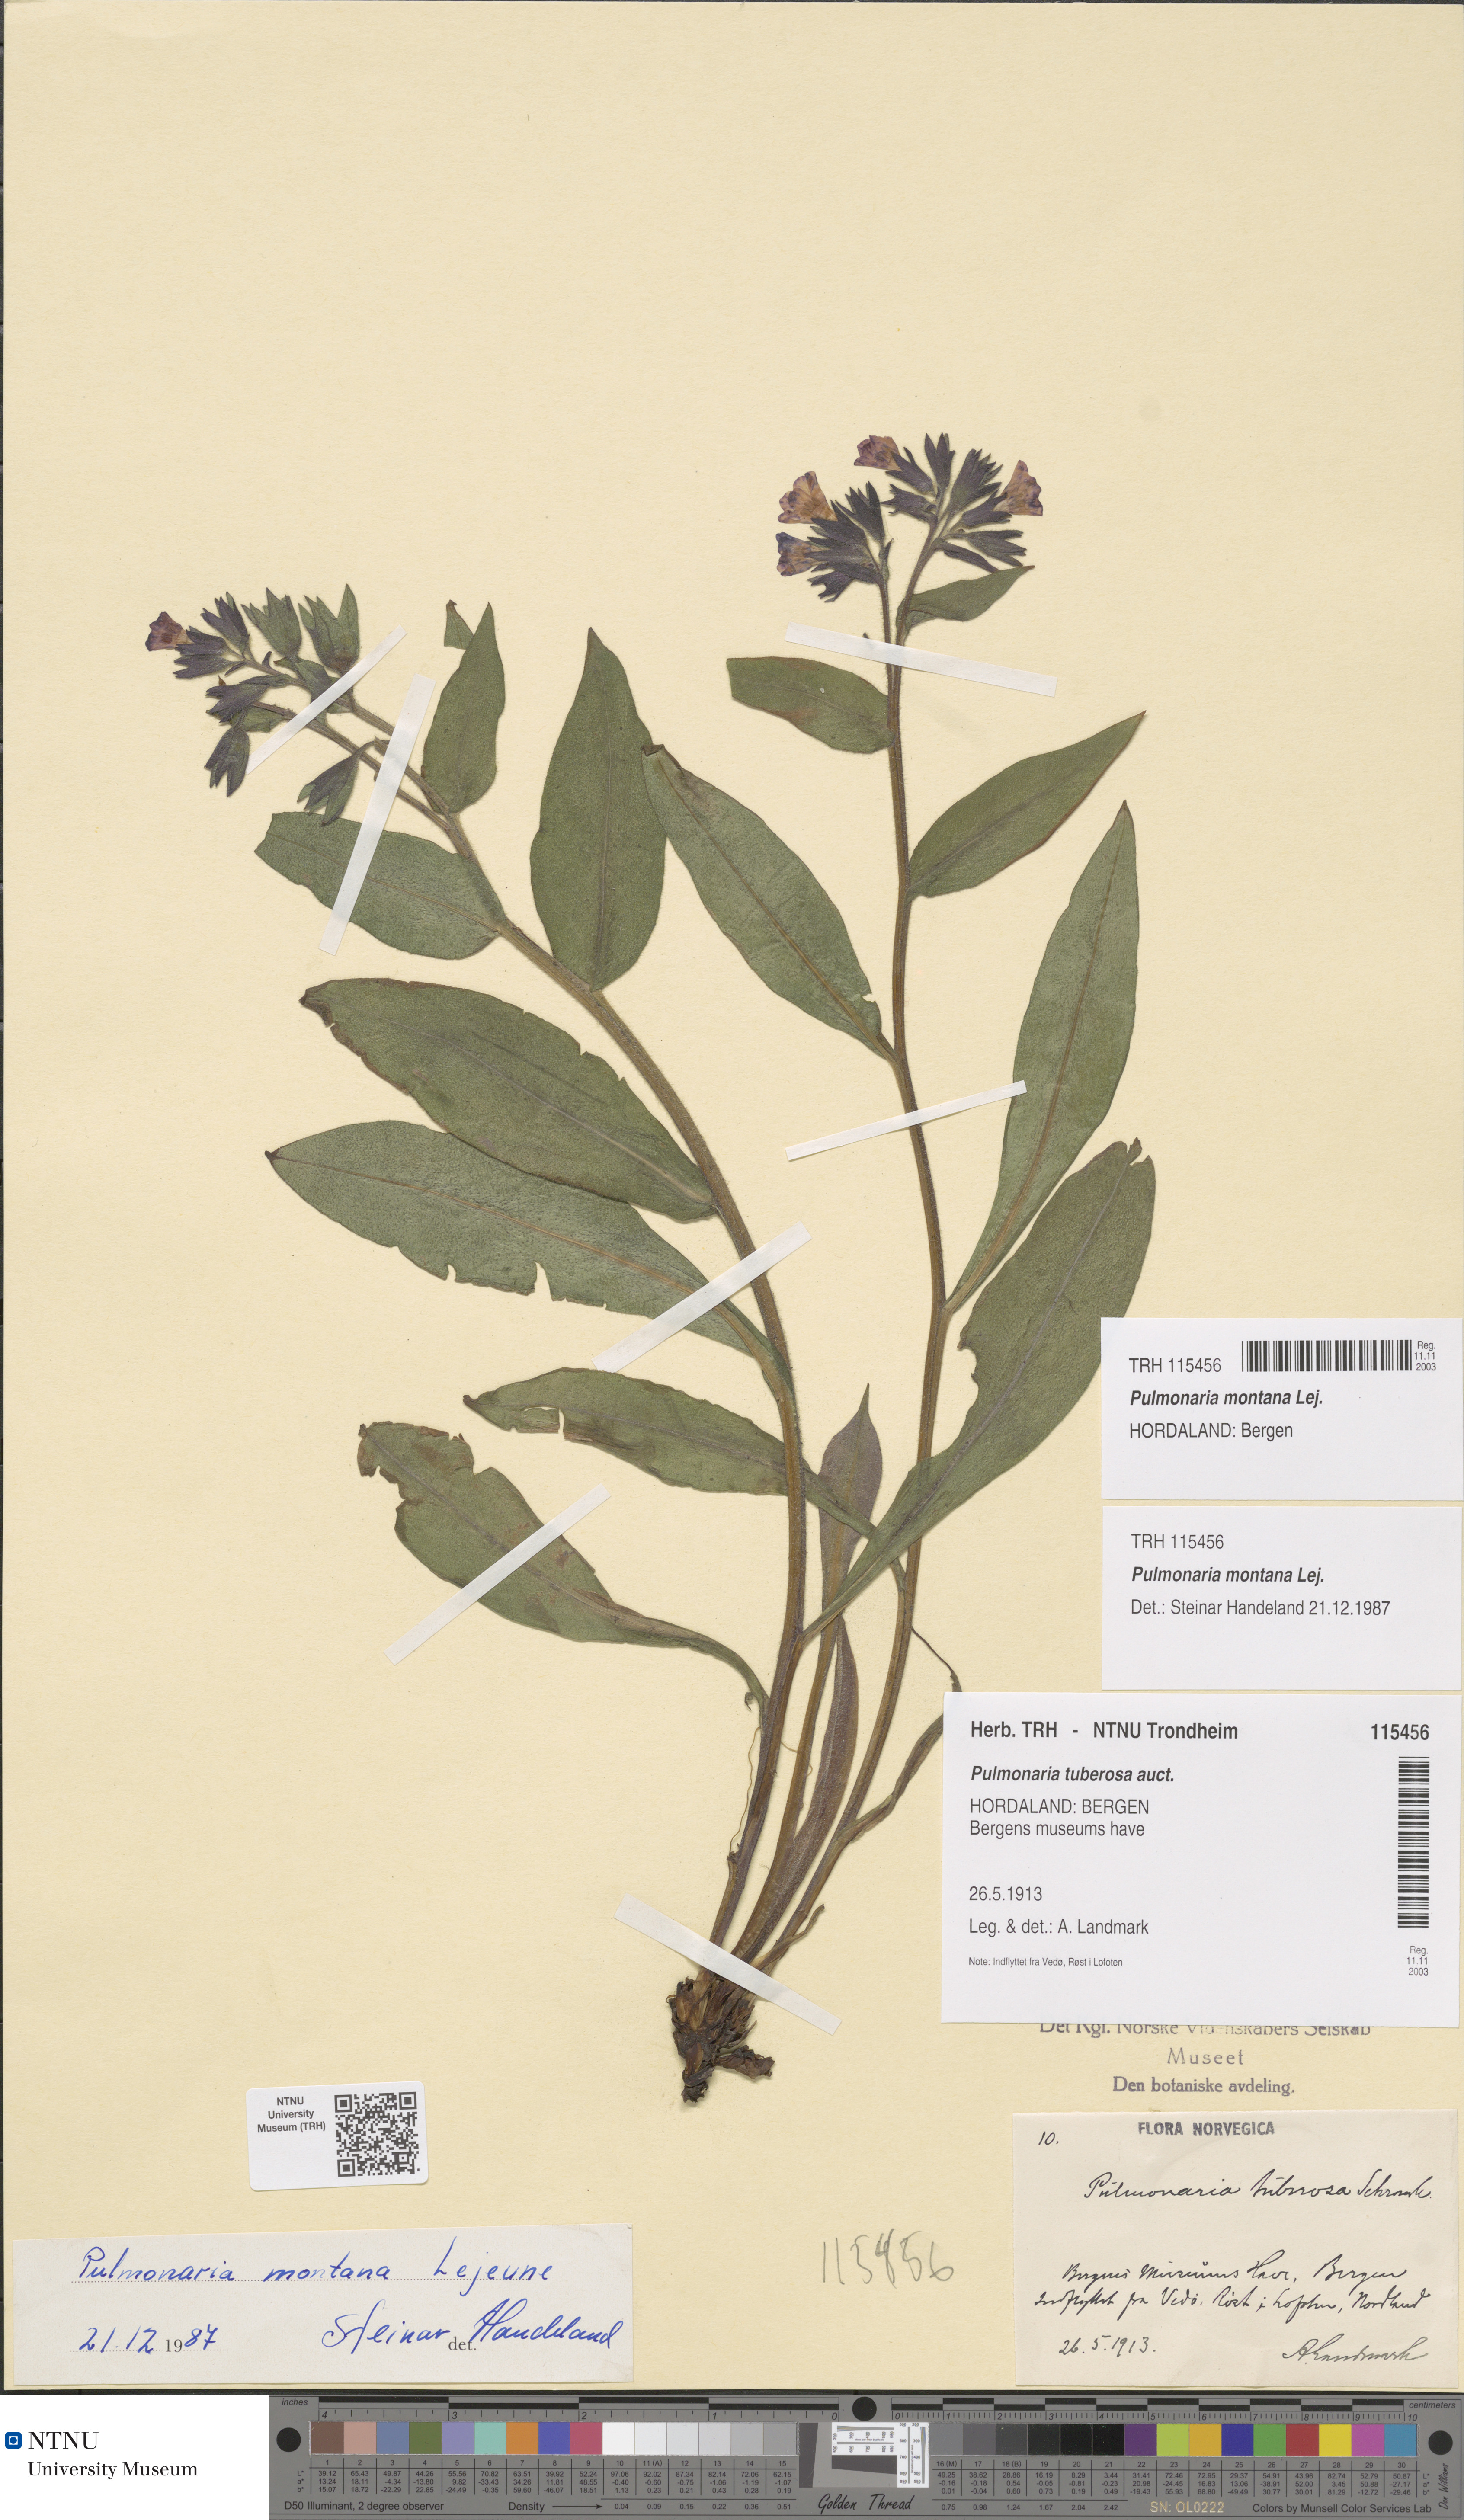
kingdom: Plantae
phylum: Tracheophyta
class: Magnoliopsida
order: Boraginales
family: Boraginaceae
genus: Pulmonaria
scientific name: Pulmonaria montana
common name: Mountain lungwort
